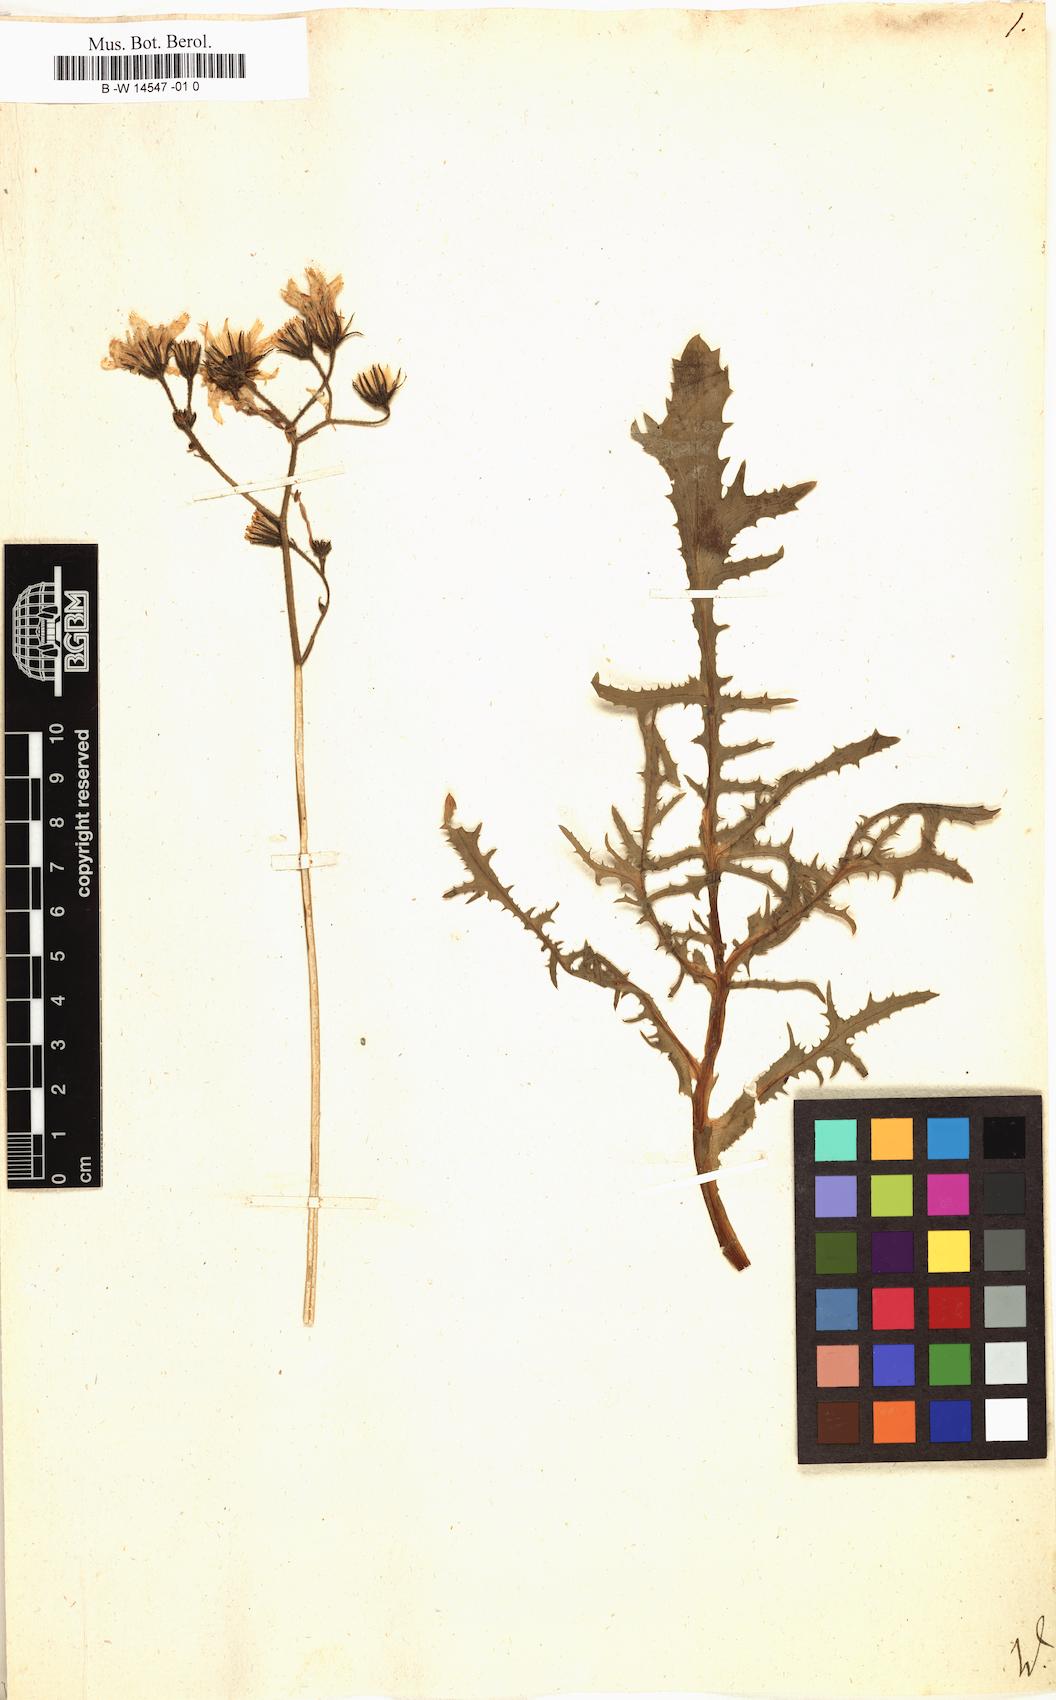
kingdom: Plantae
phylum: Tracheophyta
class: Magnoliopsida
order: Asterales
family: Asteraceae
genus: Sonchus
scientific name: Sonchus
